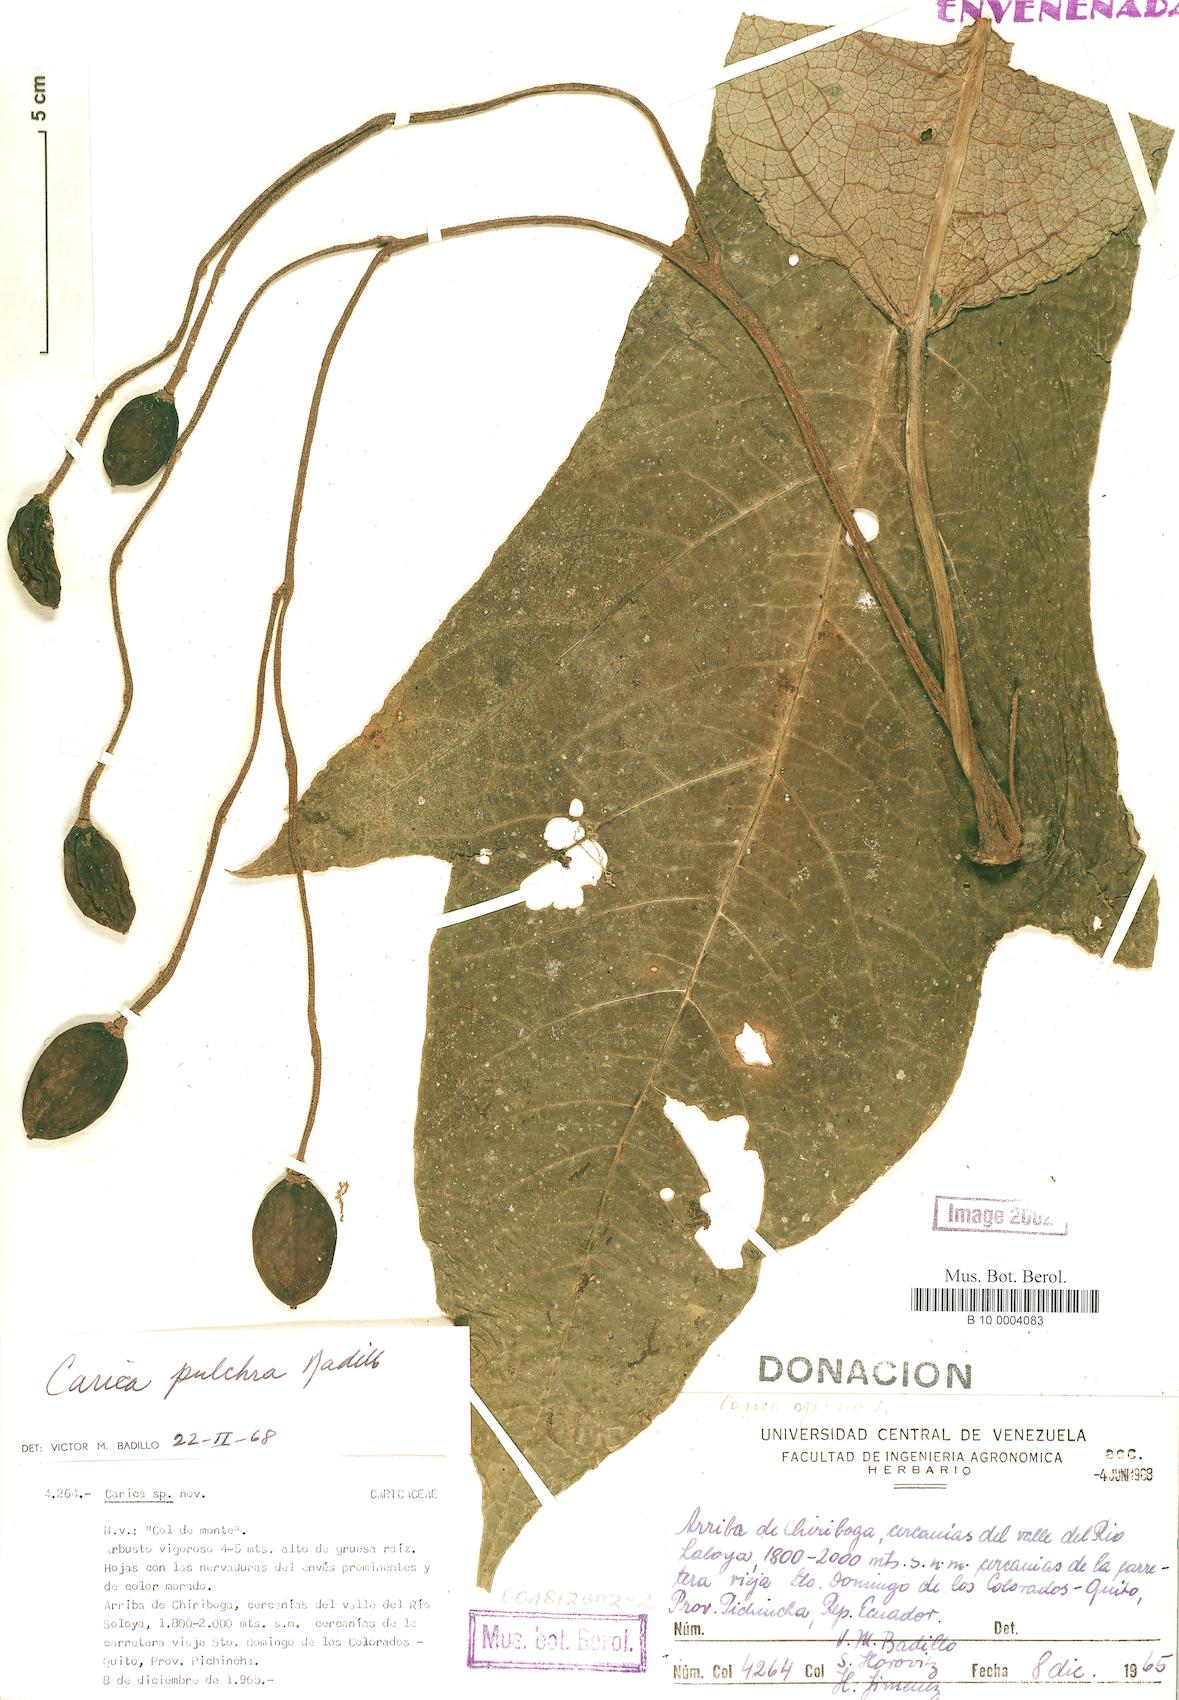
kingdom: Plantae
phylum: Tracheophyta
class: Magnoliopsida
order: Brassicales
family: Caricaceae
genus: Vasconcellea
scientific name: Vasconcellea pulchra
